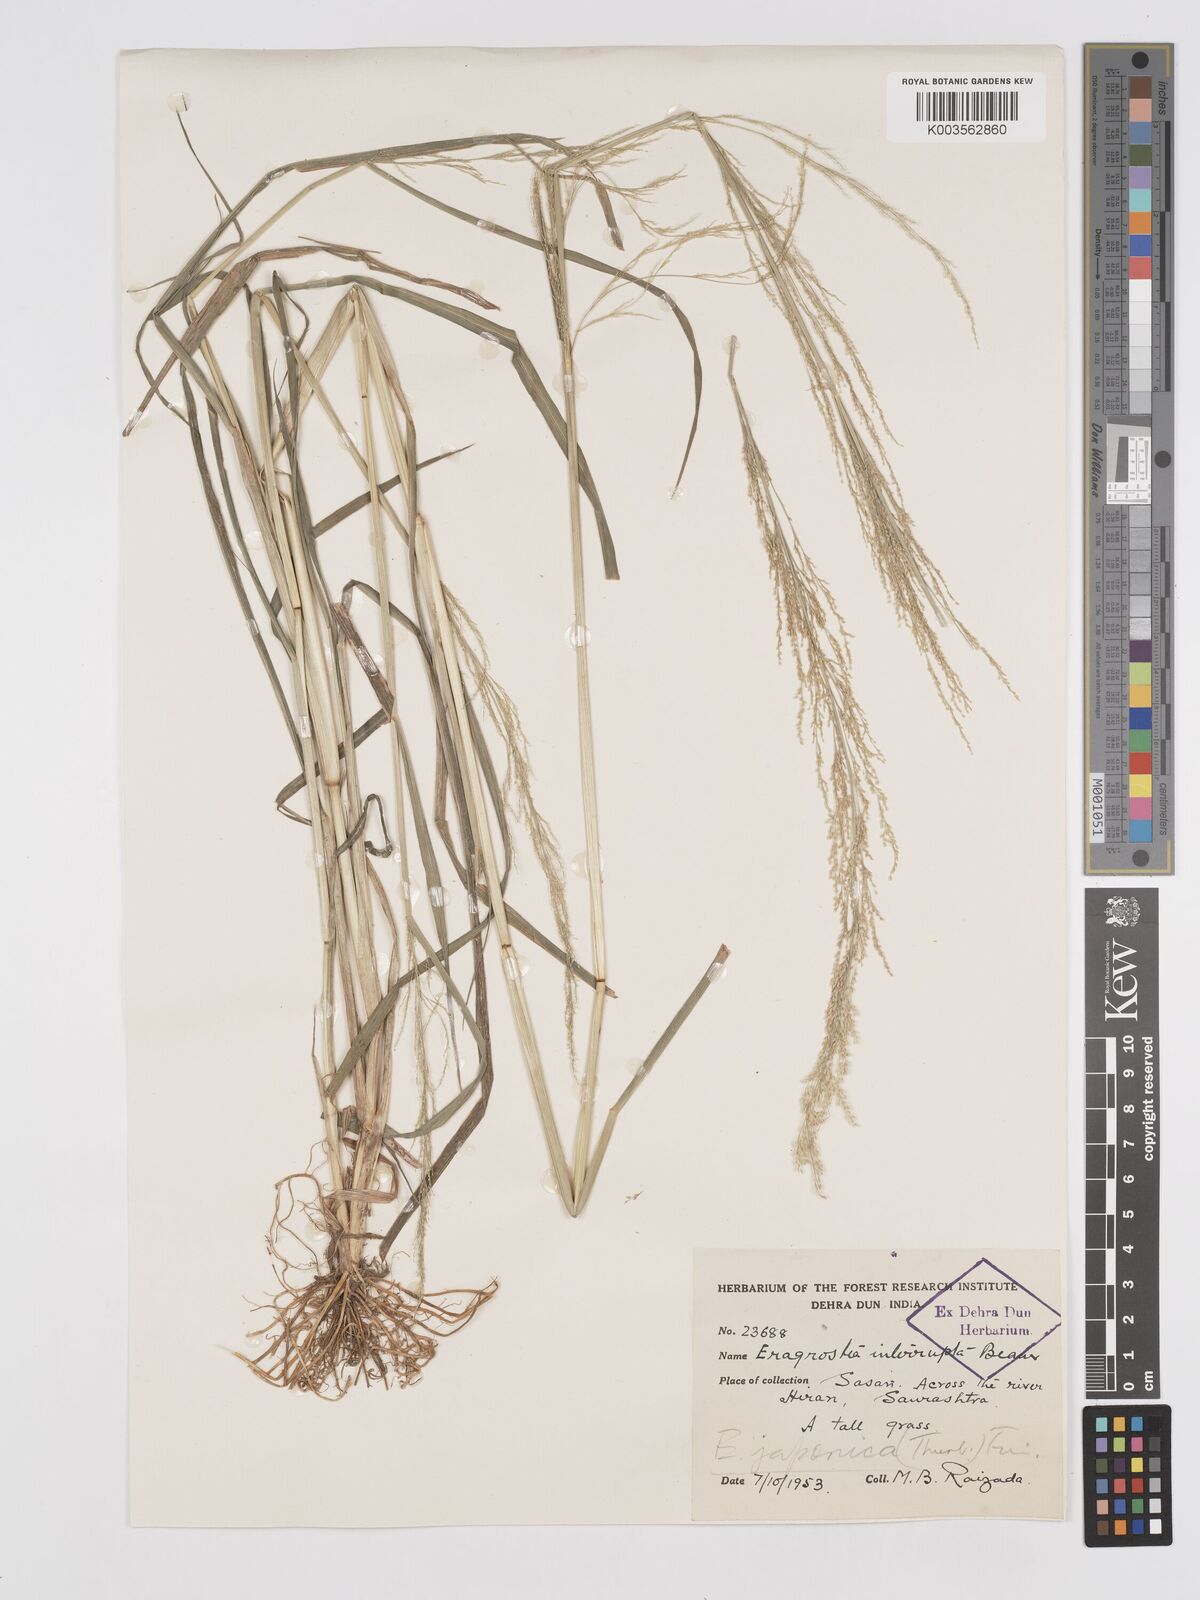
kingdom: Plantae
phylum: Tracheophyta
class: Liliopsida
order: Poales
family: Poaceae
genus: Eragrostis
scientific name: Eragrostis japonica
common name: Pond lovegrass
